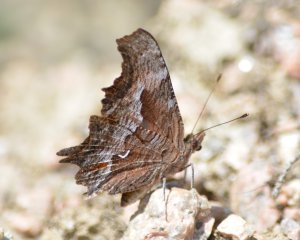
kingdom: Animalia
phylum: Arthropoda
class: Insecta
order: Lepidoptera
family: Nymphalidae
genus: Polygonia
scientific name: Polygonia gracilis
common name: Hoary Comma
